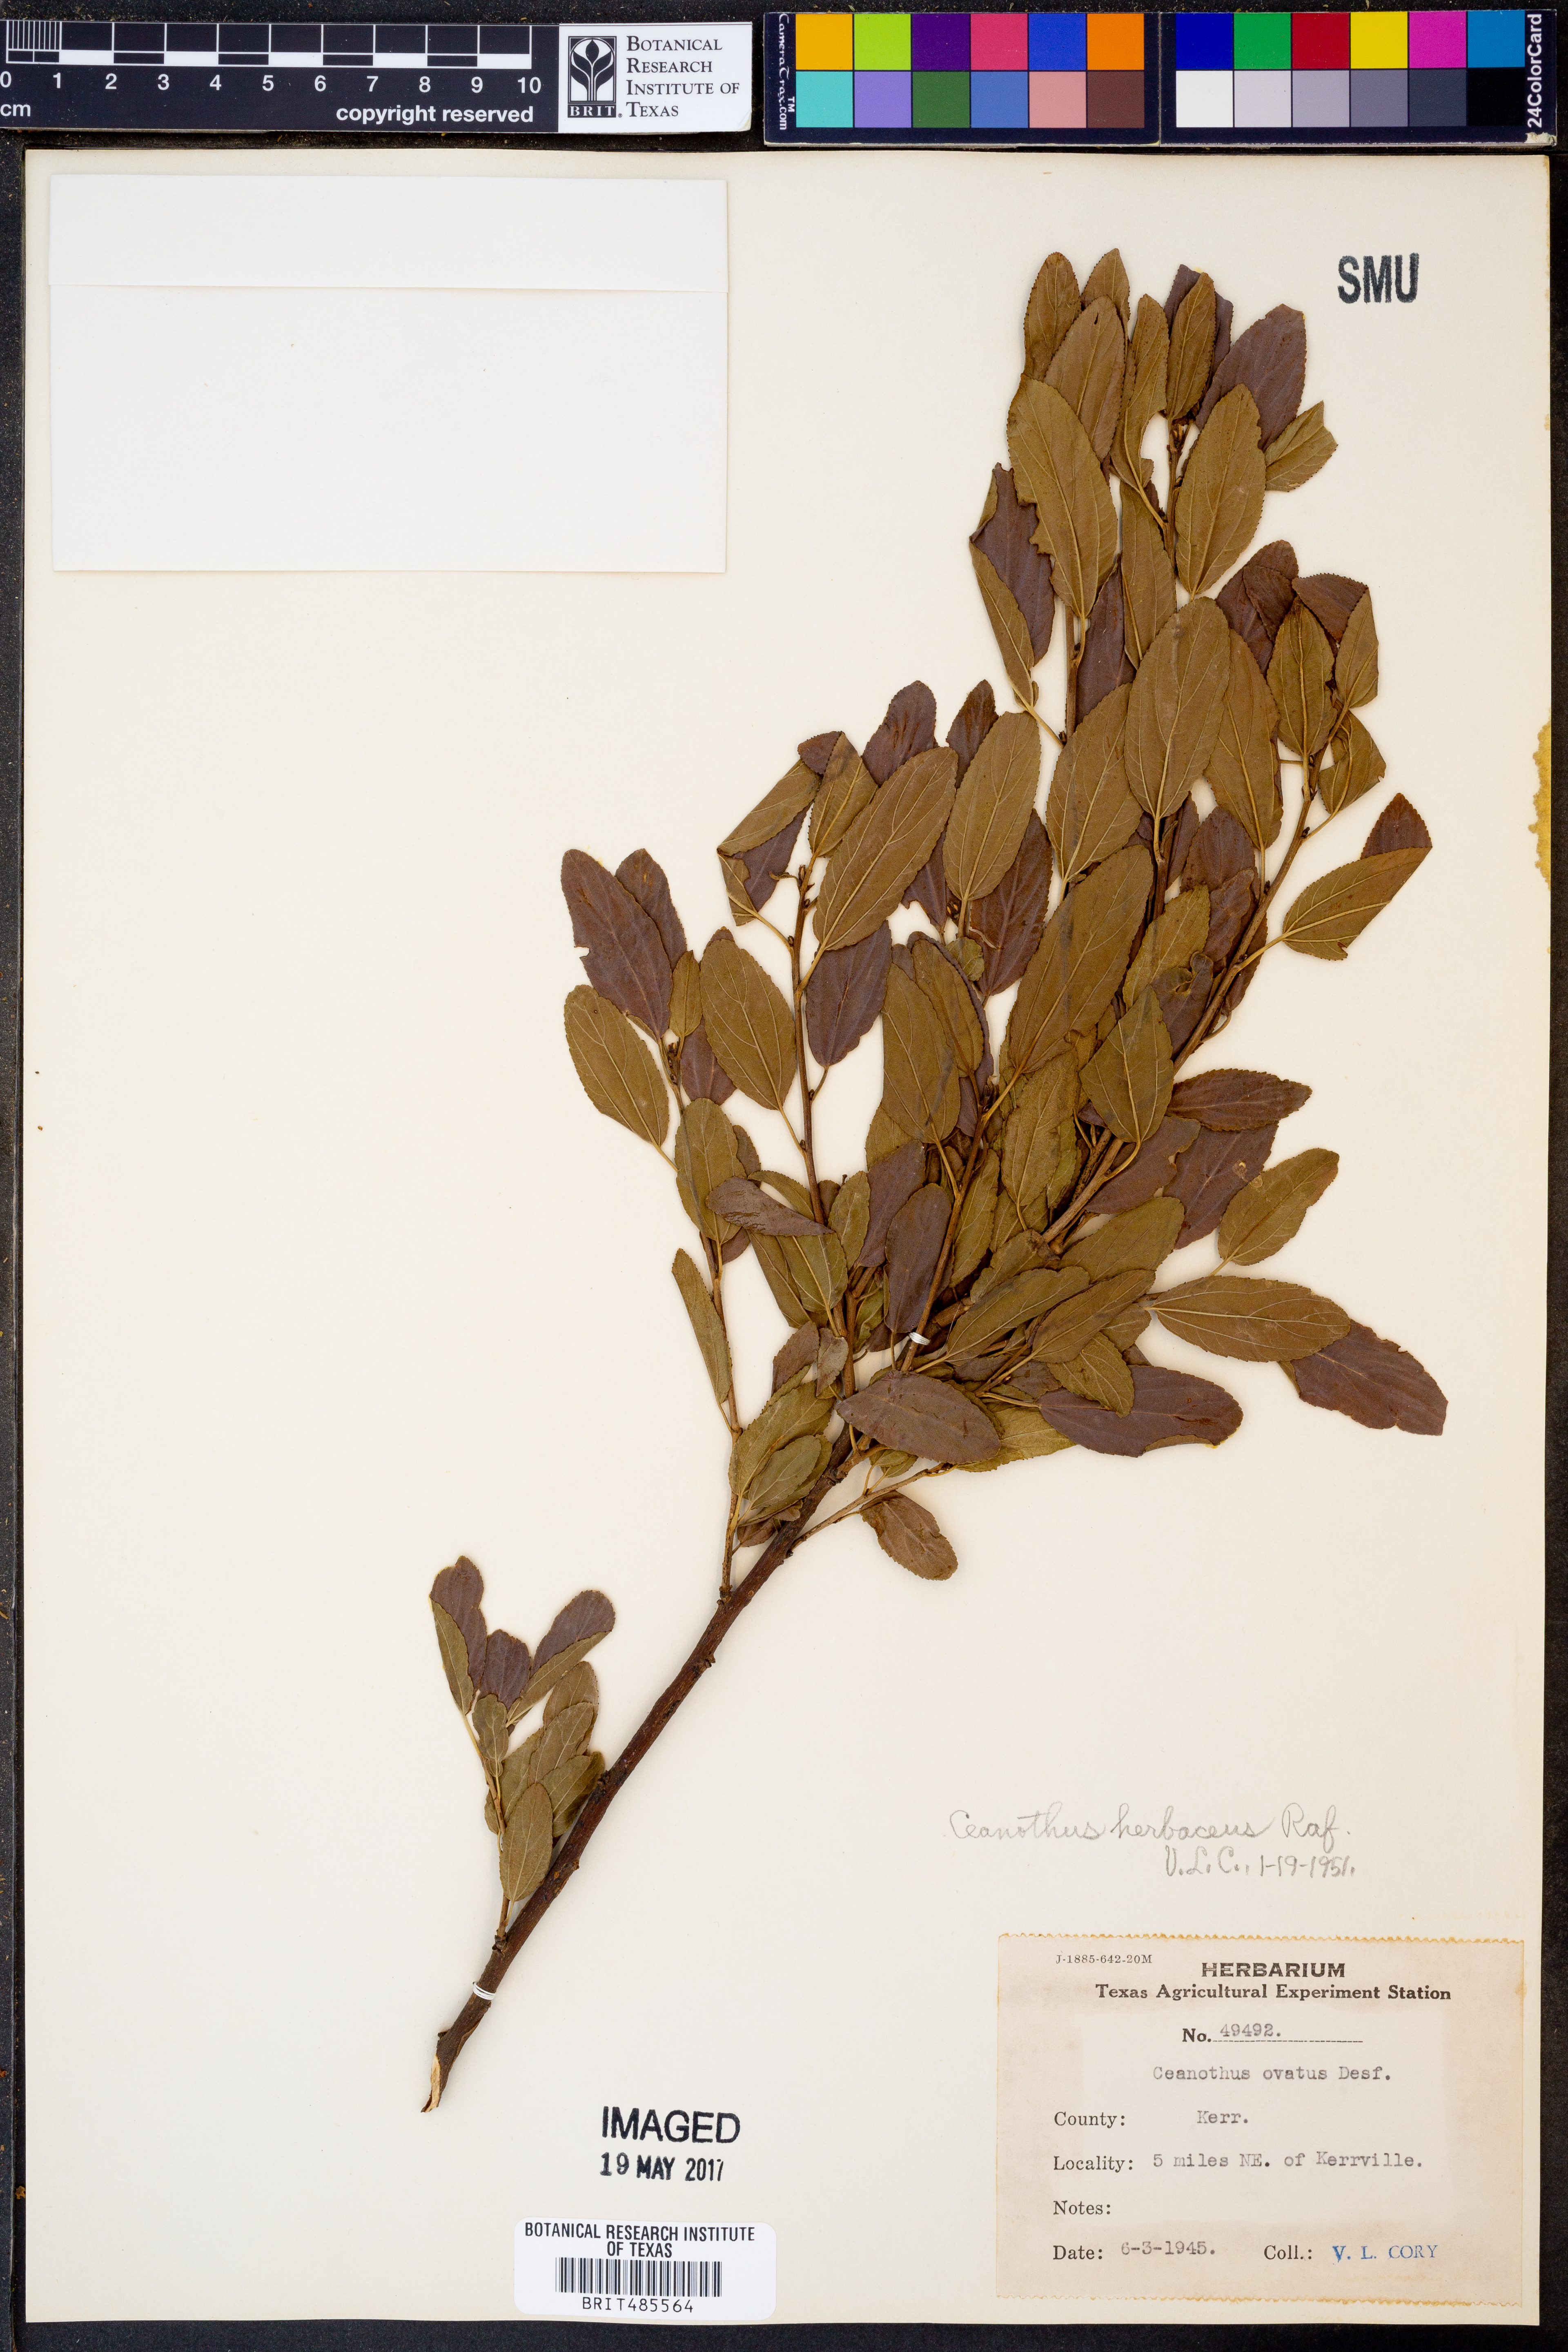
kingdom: Plantae
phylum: Tracheophyta
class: Magnoliopsida
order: Rosales
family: Rhamnaceae
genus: Ceanothus
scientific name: Ceanothus herbaceus
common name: Inland ceanothus
